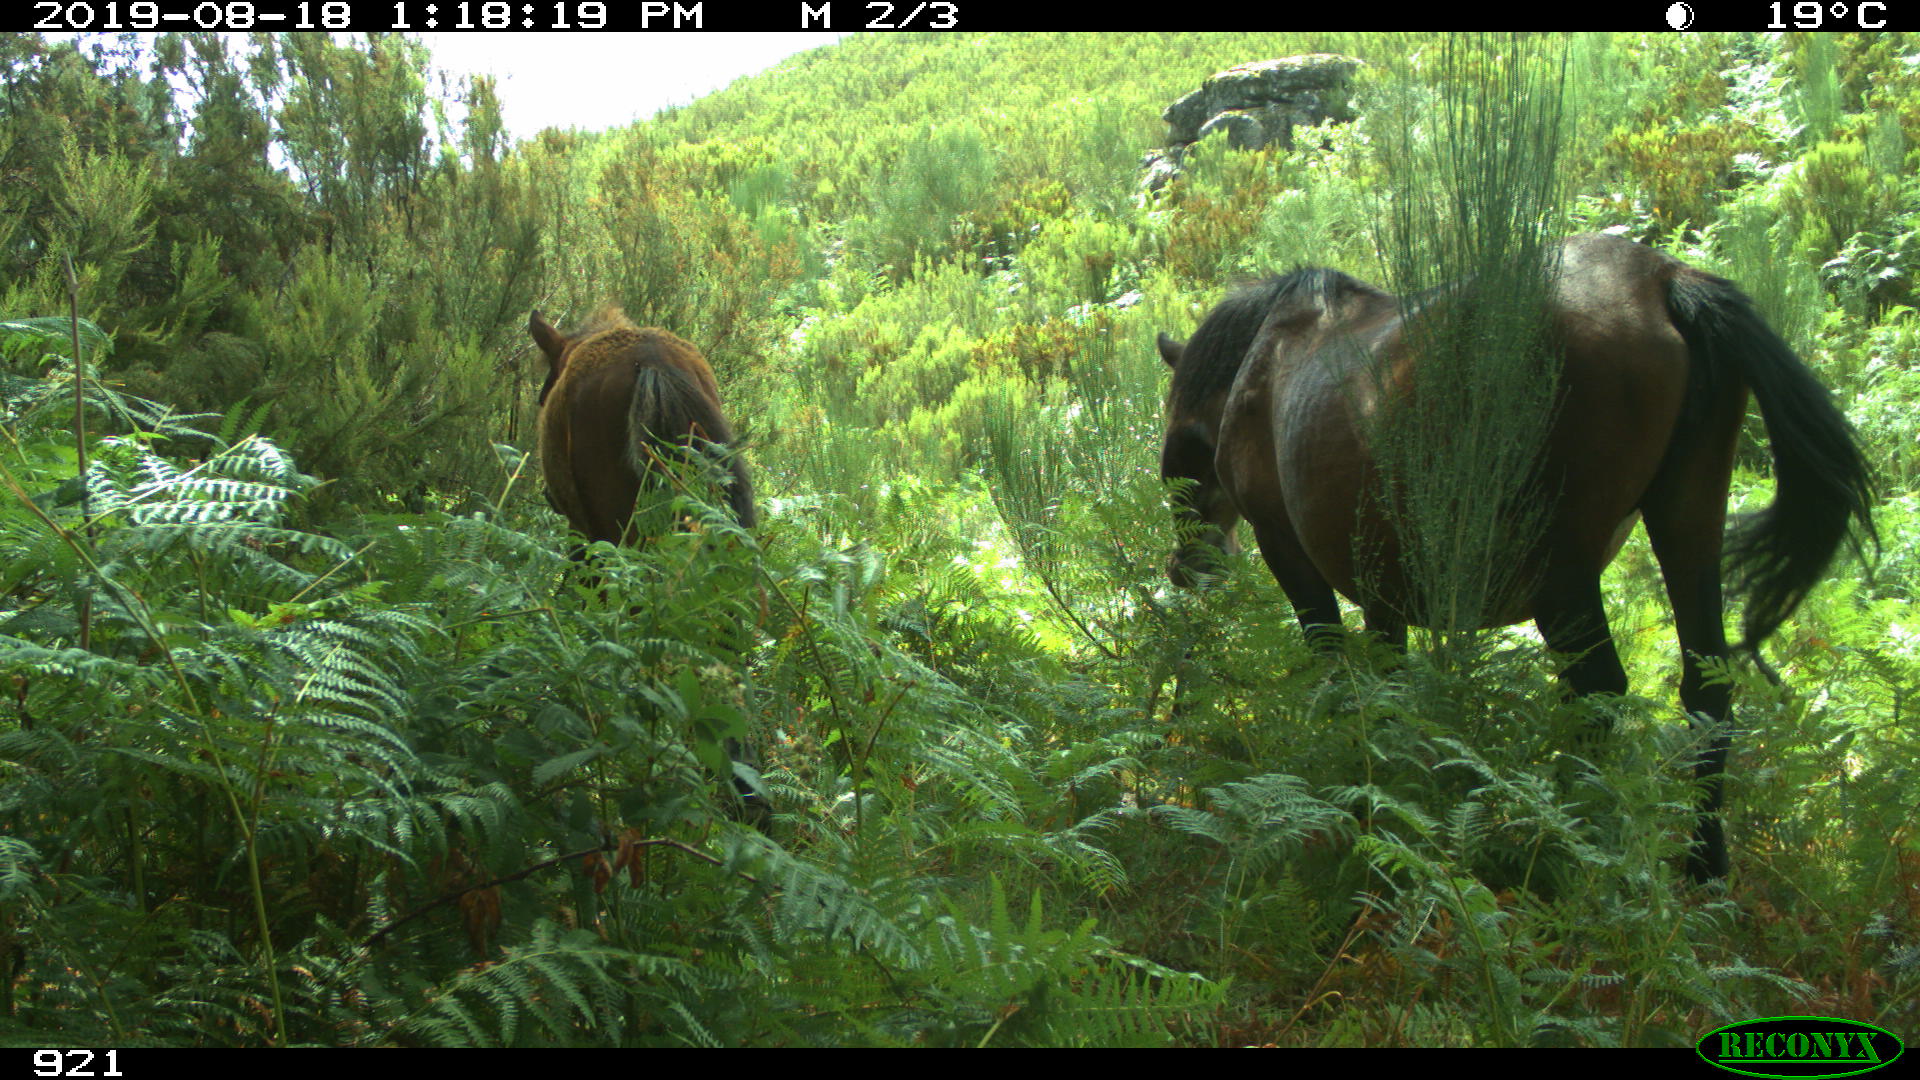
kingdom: Animalia
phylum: Chordata
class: Mammalia
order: Perissodactyla
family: Equidae
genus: Equus
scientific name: Equus caballus
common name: Horse
